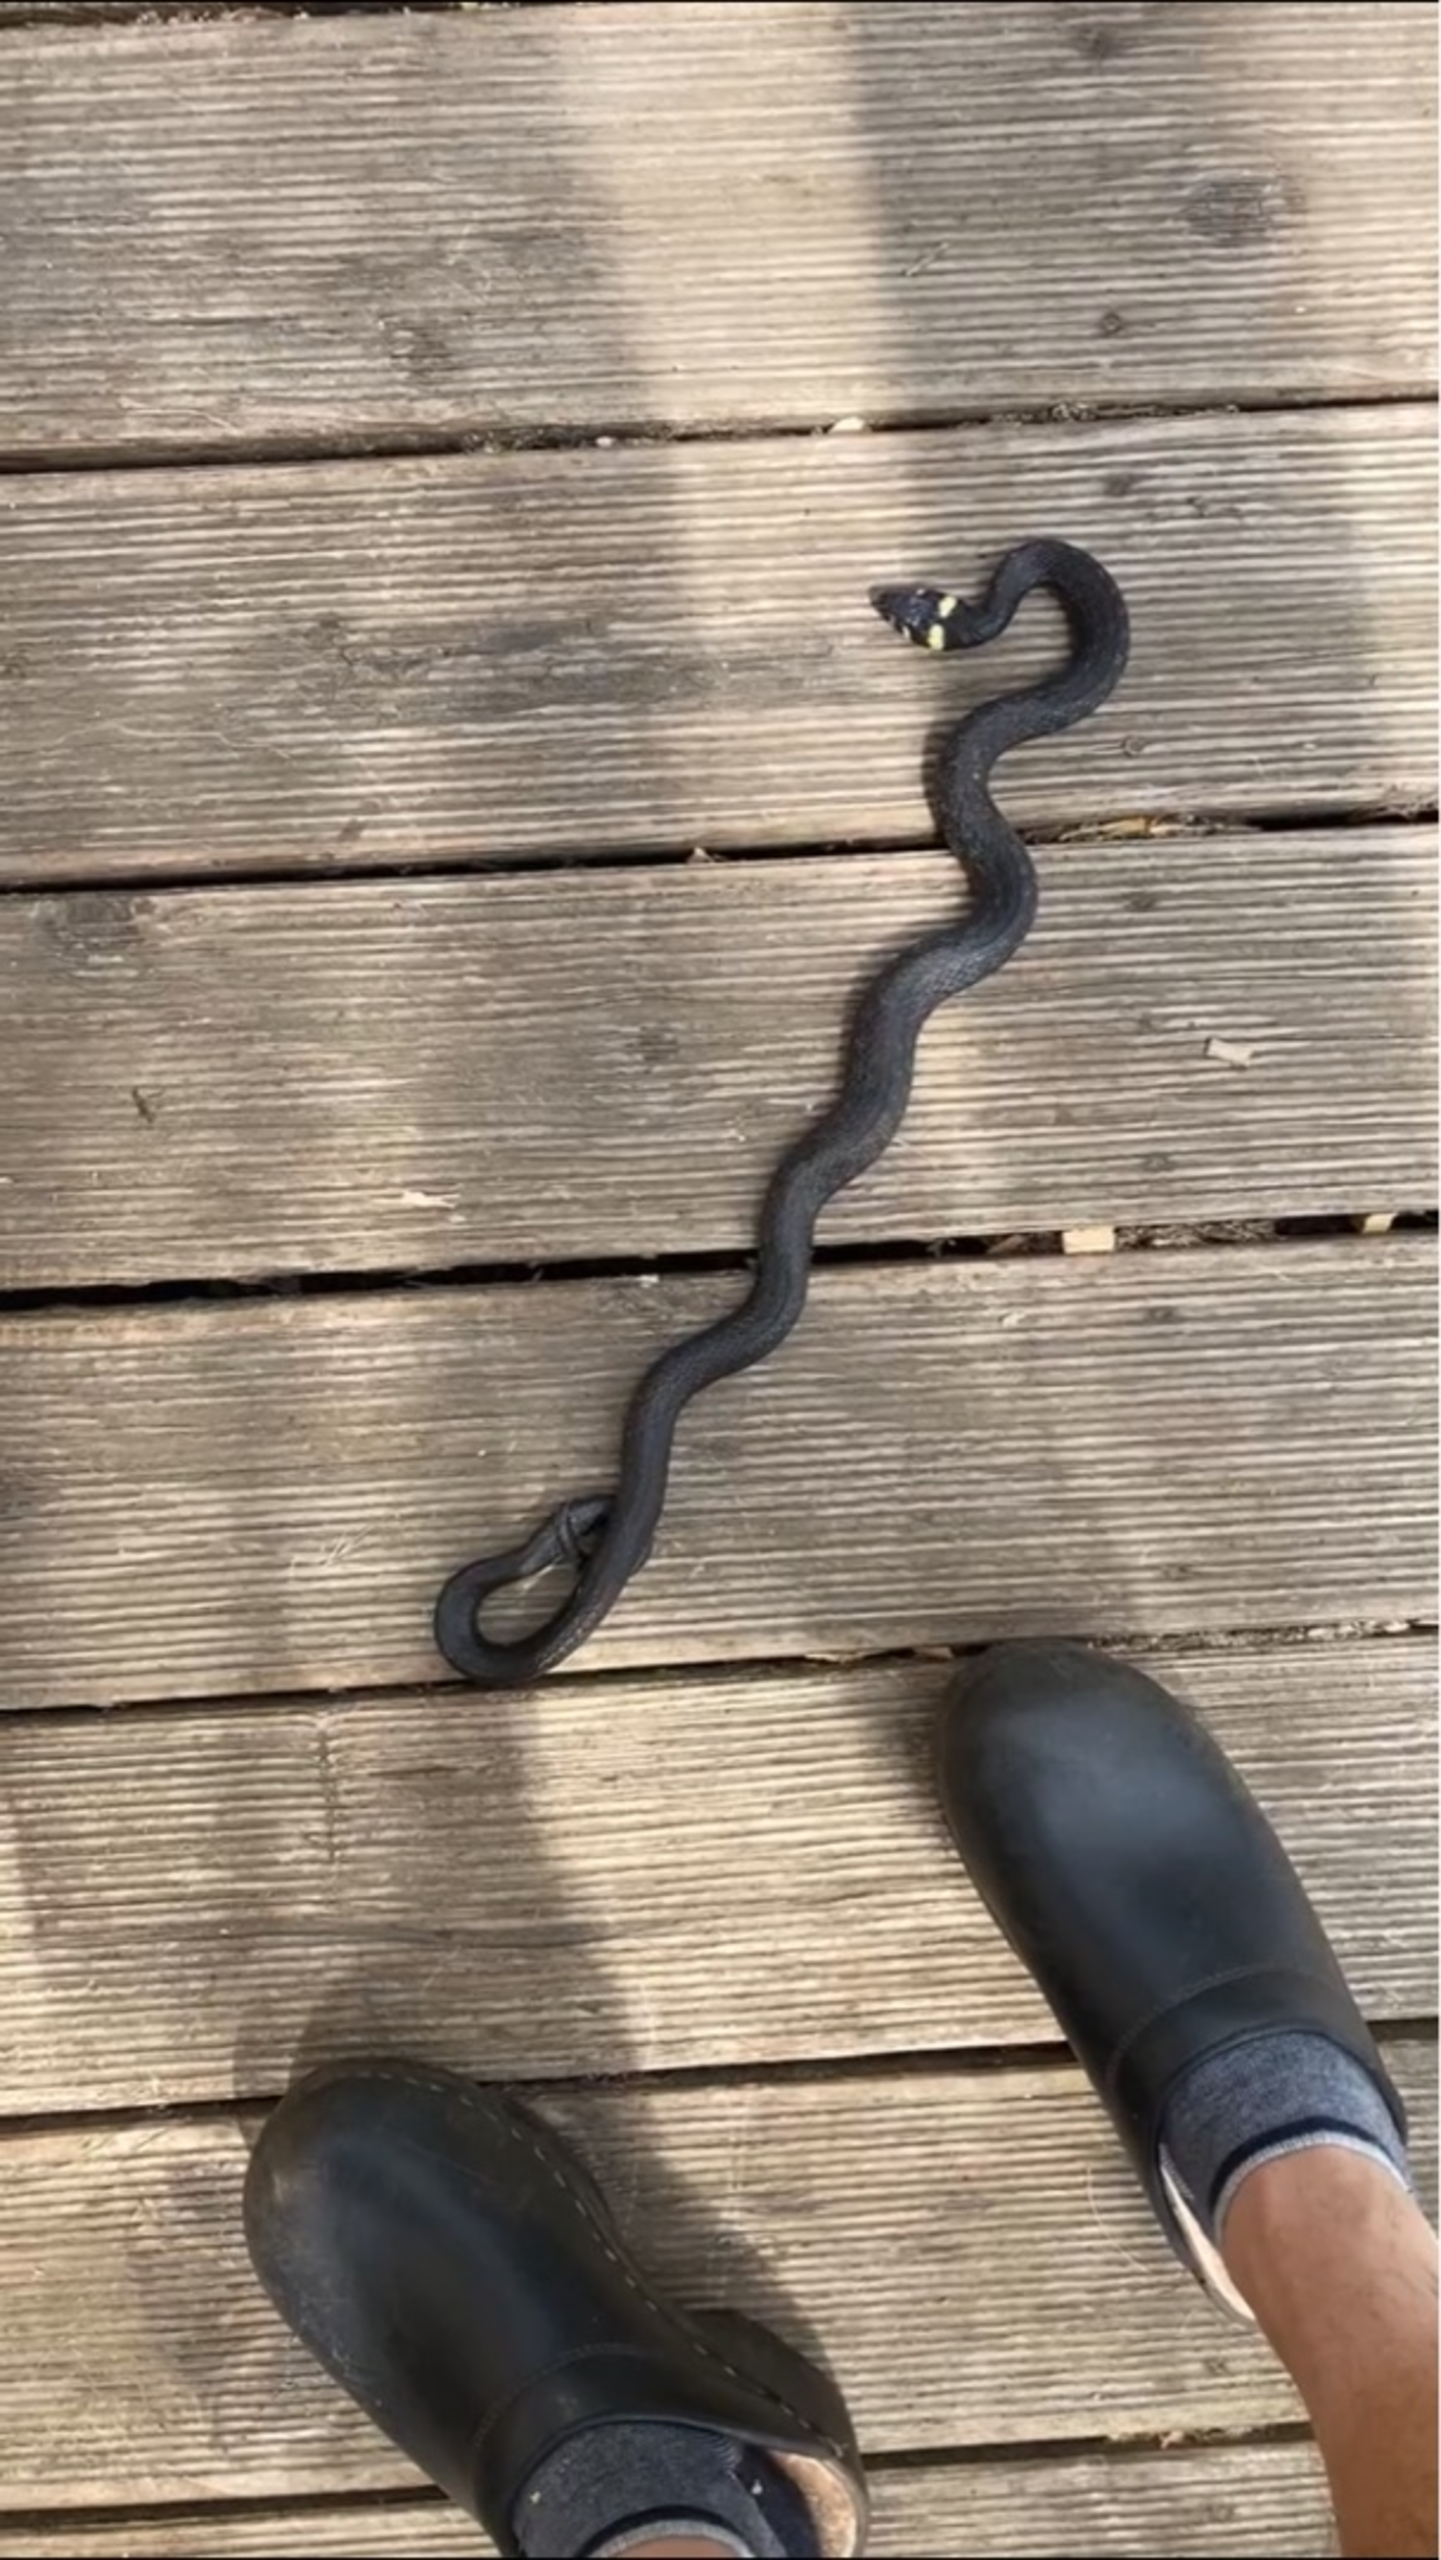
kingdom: Animalia
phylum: Chordata
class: Squamata
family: Colubridae
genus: Natrix
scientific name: Natrix natrix
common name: Snog
